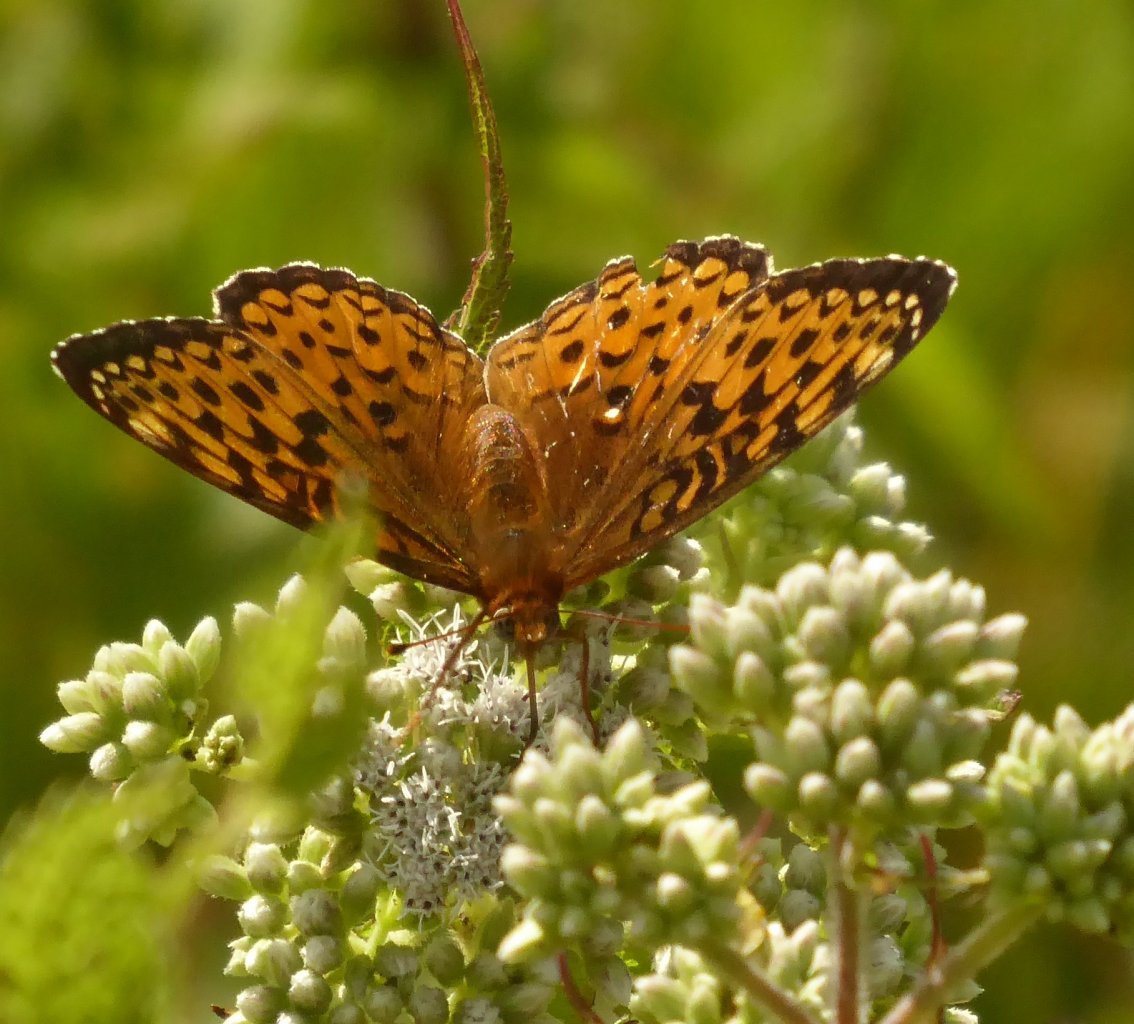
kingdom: Animalia
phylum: Arthropoda
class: Insecta
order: Lepidoptera
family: Nymphalidae
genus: Speyeria
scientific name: Speyeria atlantis
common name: Atlantis Fritillary
